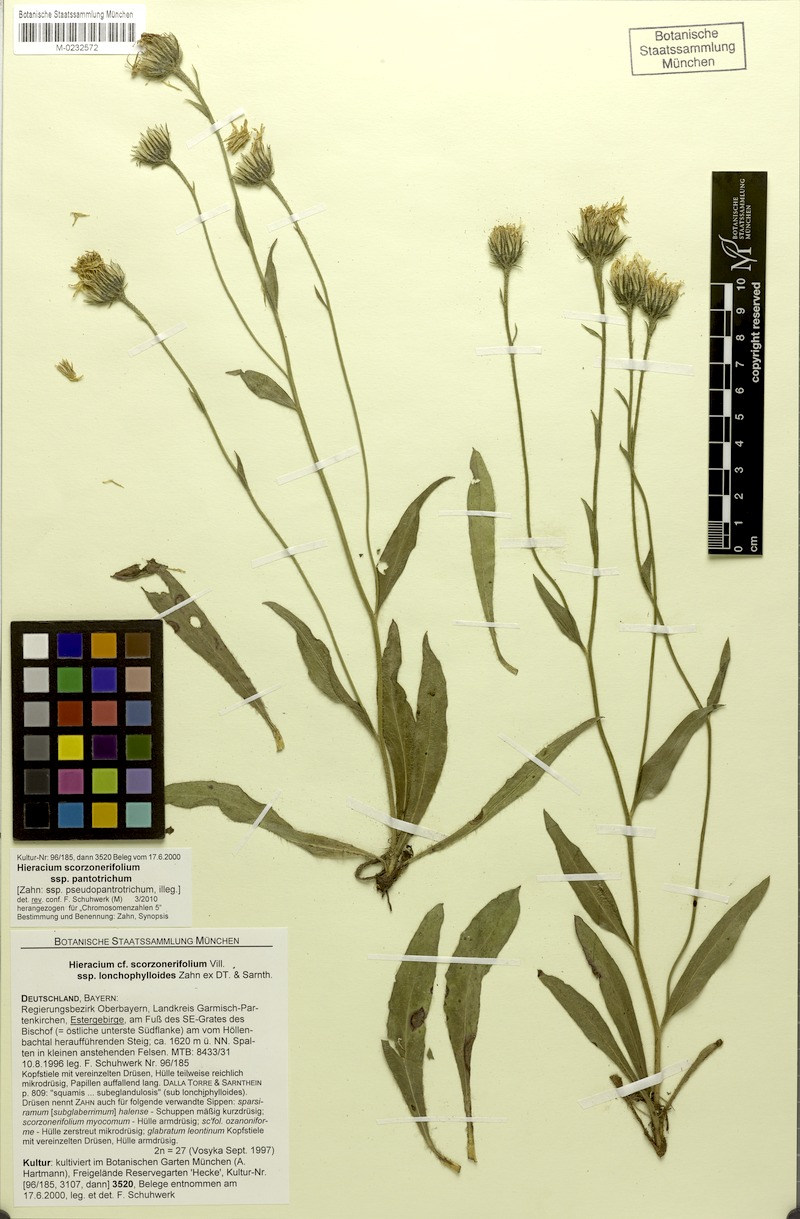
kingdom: Plantae
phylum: Tracheophyta
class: Magnoliopsida
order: Asterales
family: Asteraceae
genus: Hieracium
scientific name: Hieracium scorzonerifolium
